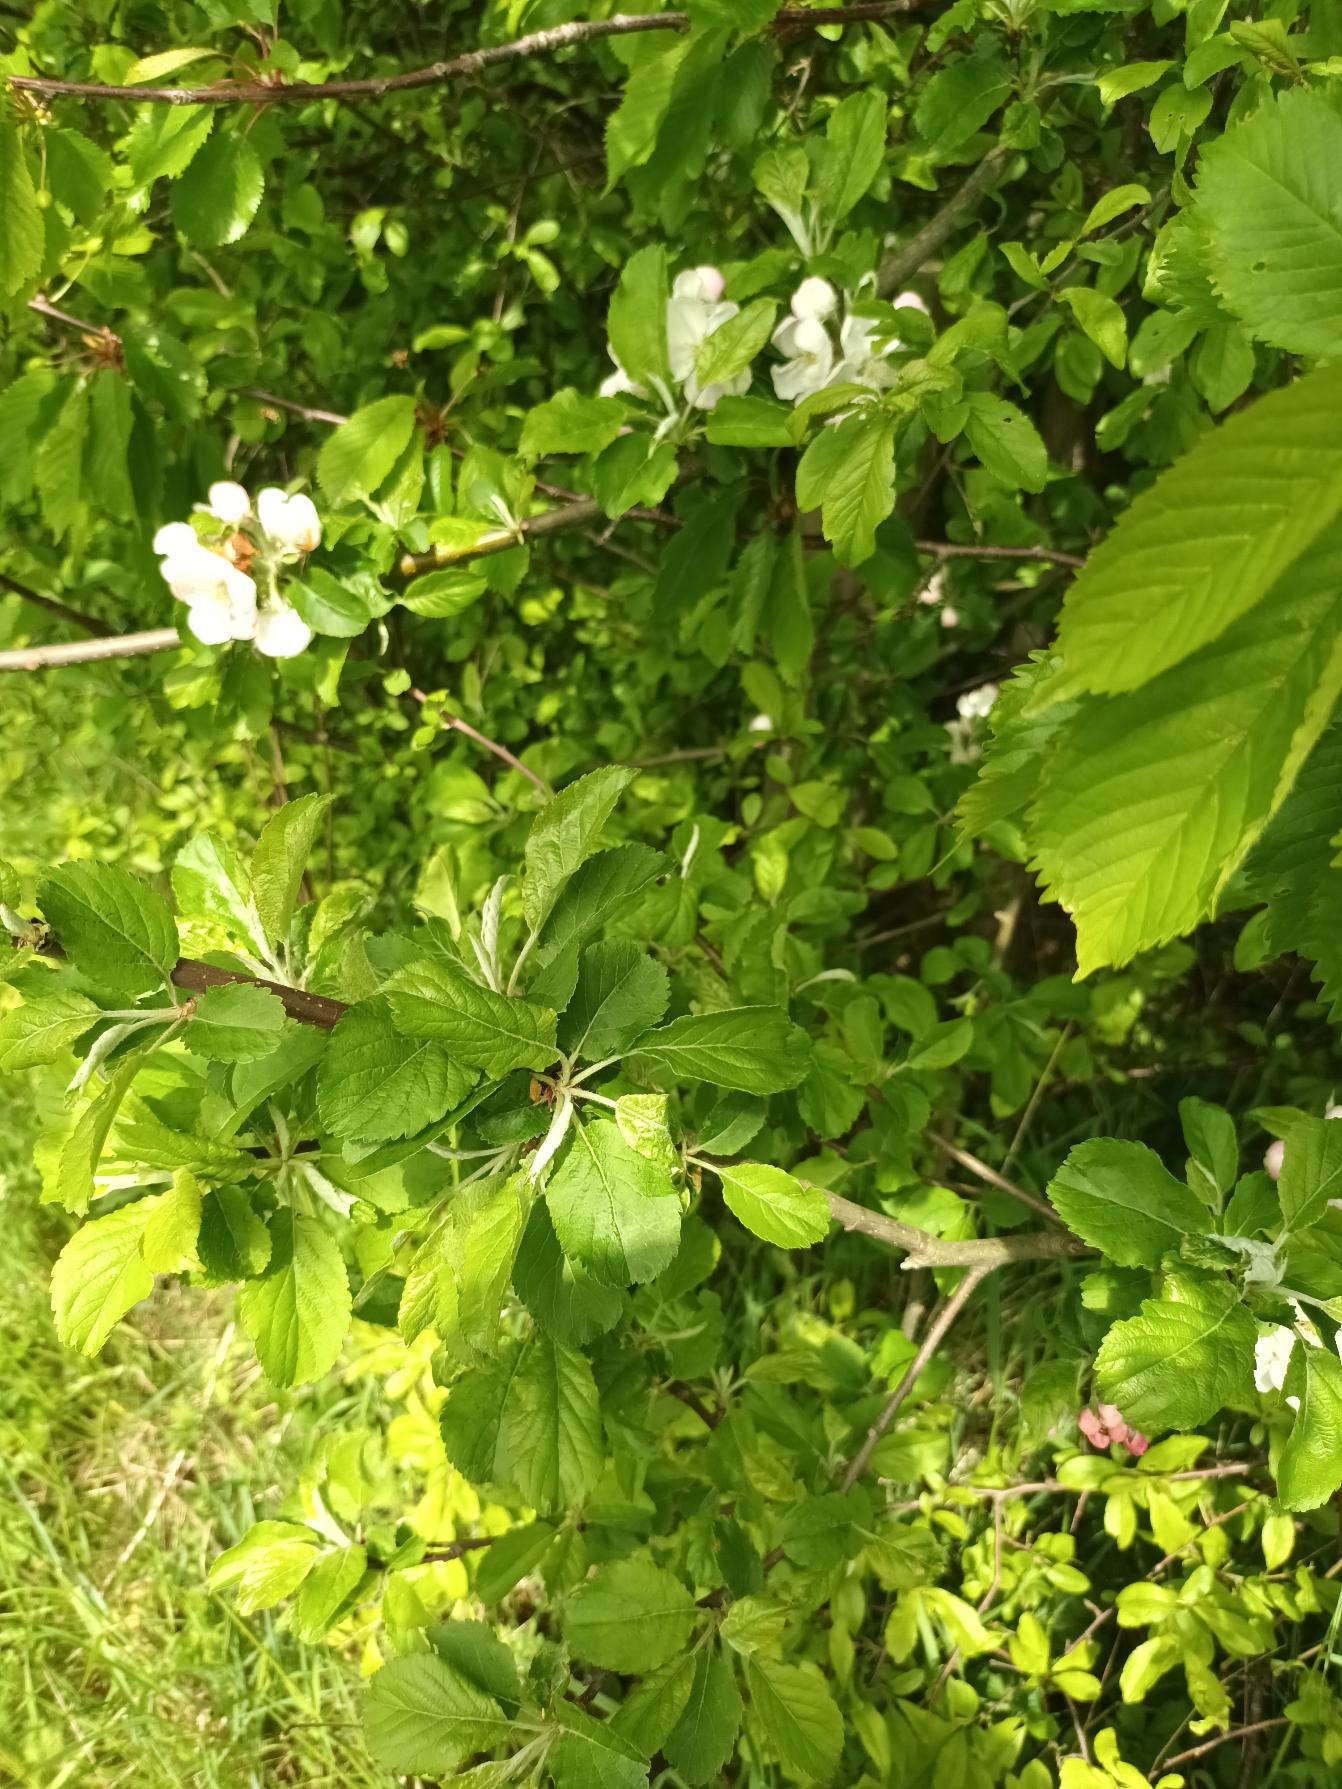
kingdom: Plantae
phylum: Tracheophyta
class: Magnoliopsida
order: Rosales
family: Rosaceae
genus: Malus
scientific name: Malus domestica
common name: Sød-æble
